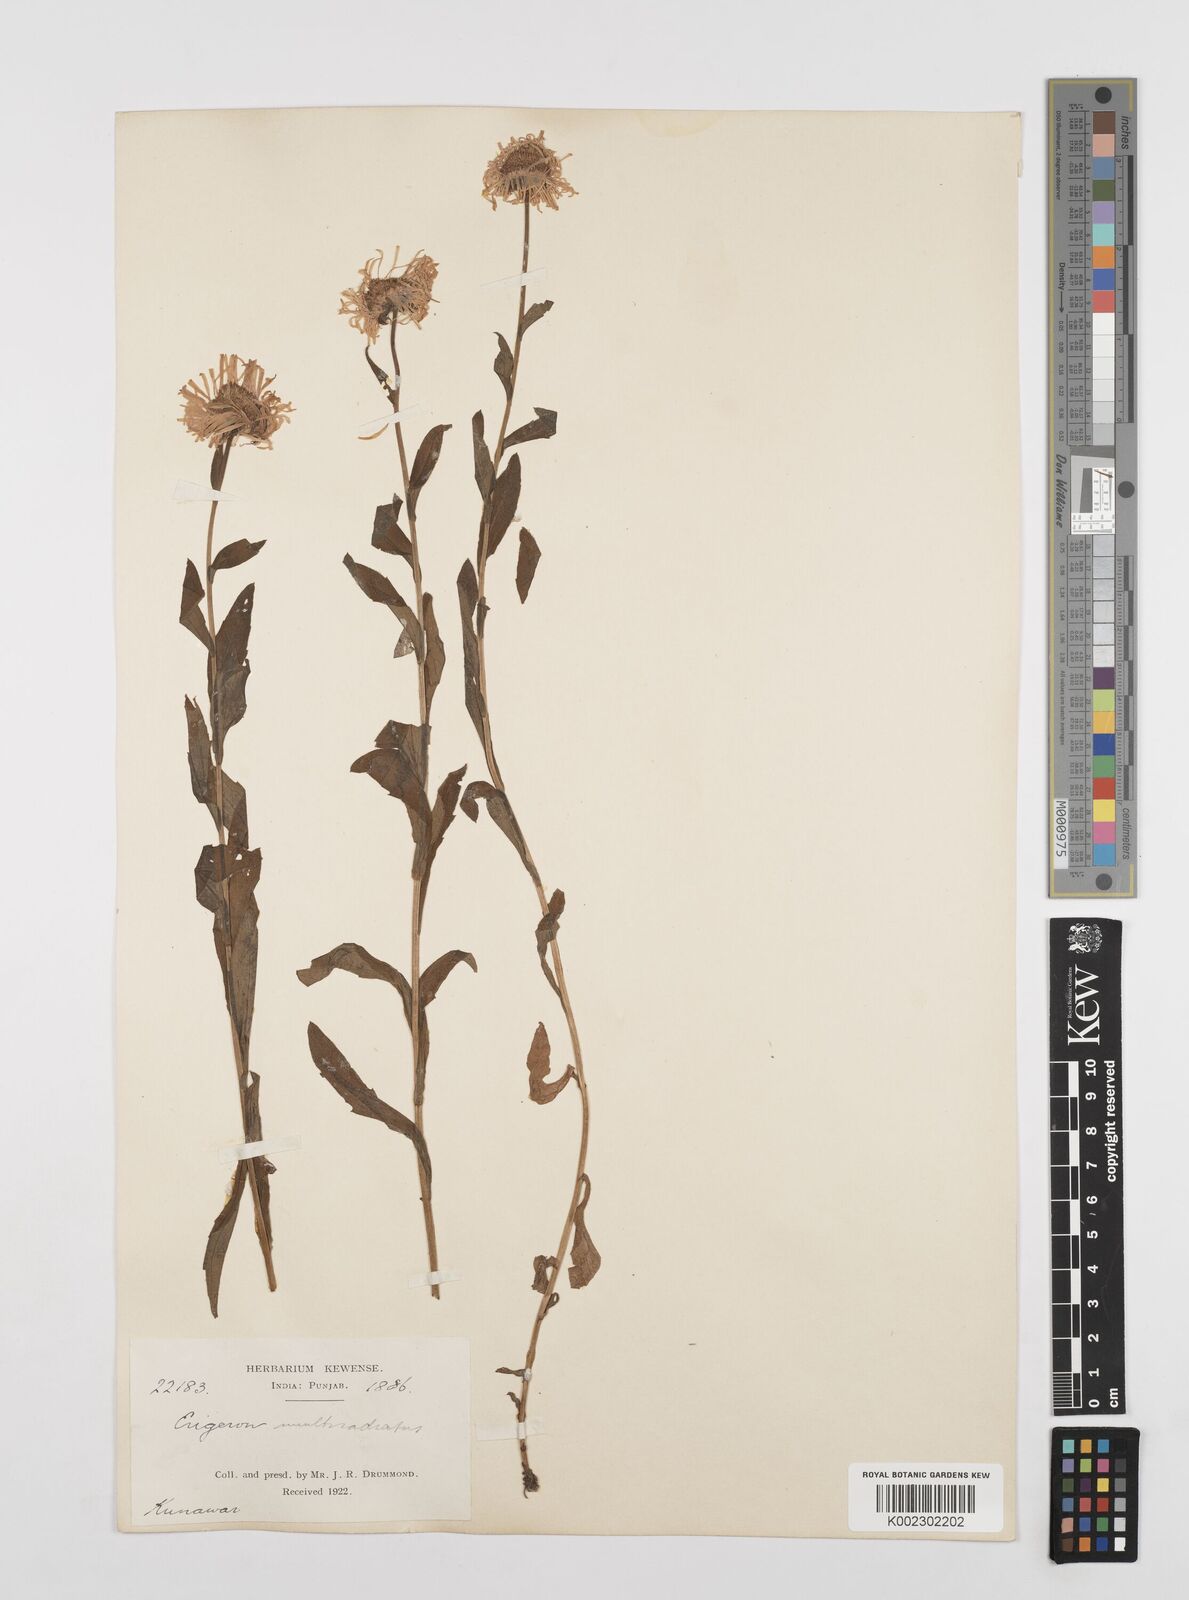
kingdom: Plantae
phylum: Tracheophyta
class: Magnoliopsida
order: Asterales
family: Asteraceae
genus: Erigeron
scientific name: Erigeron multiradiatus
